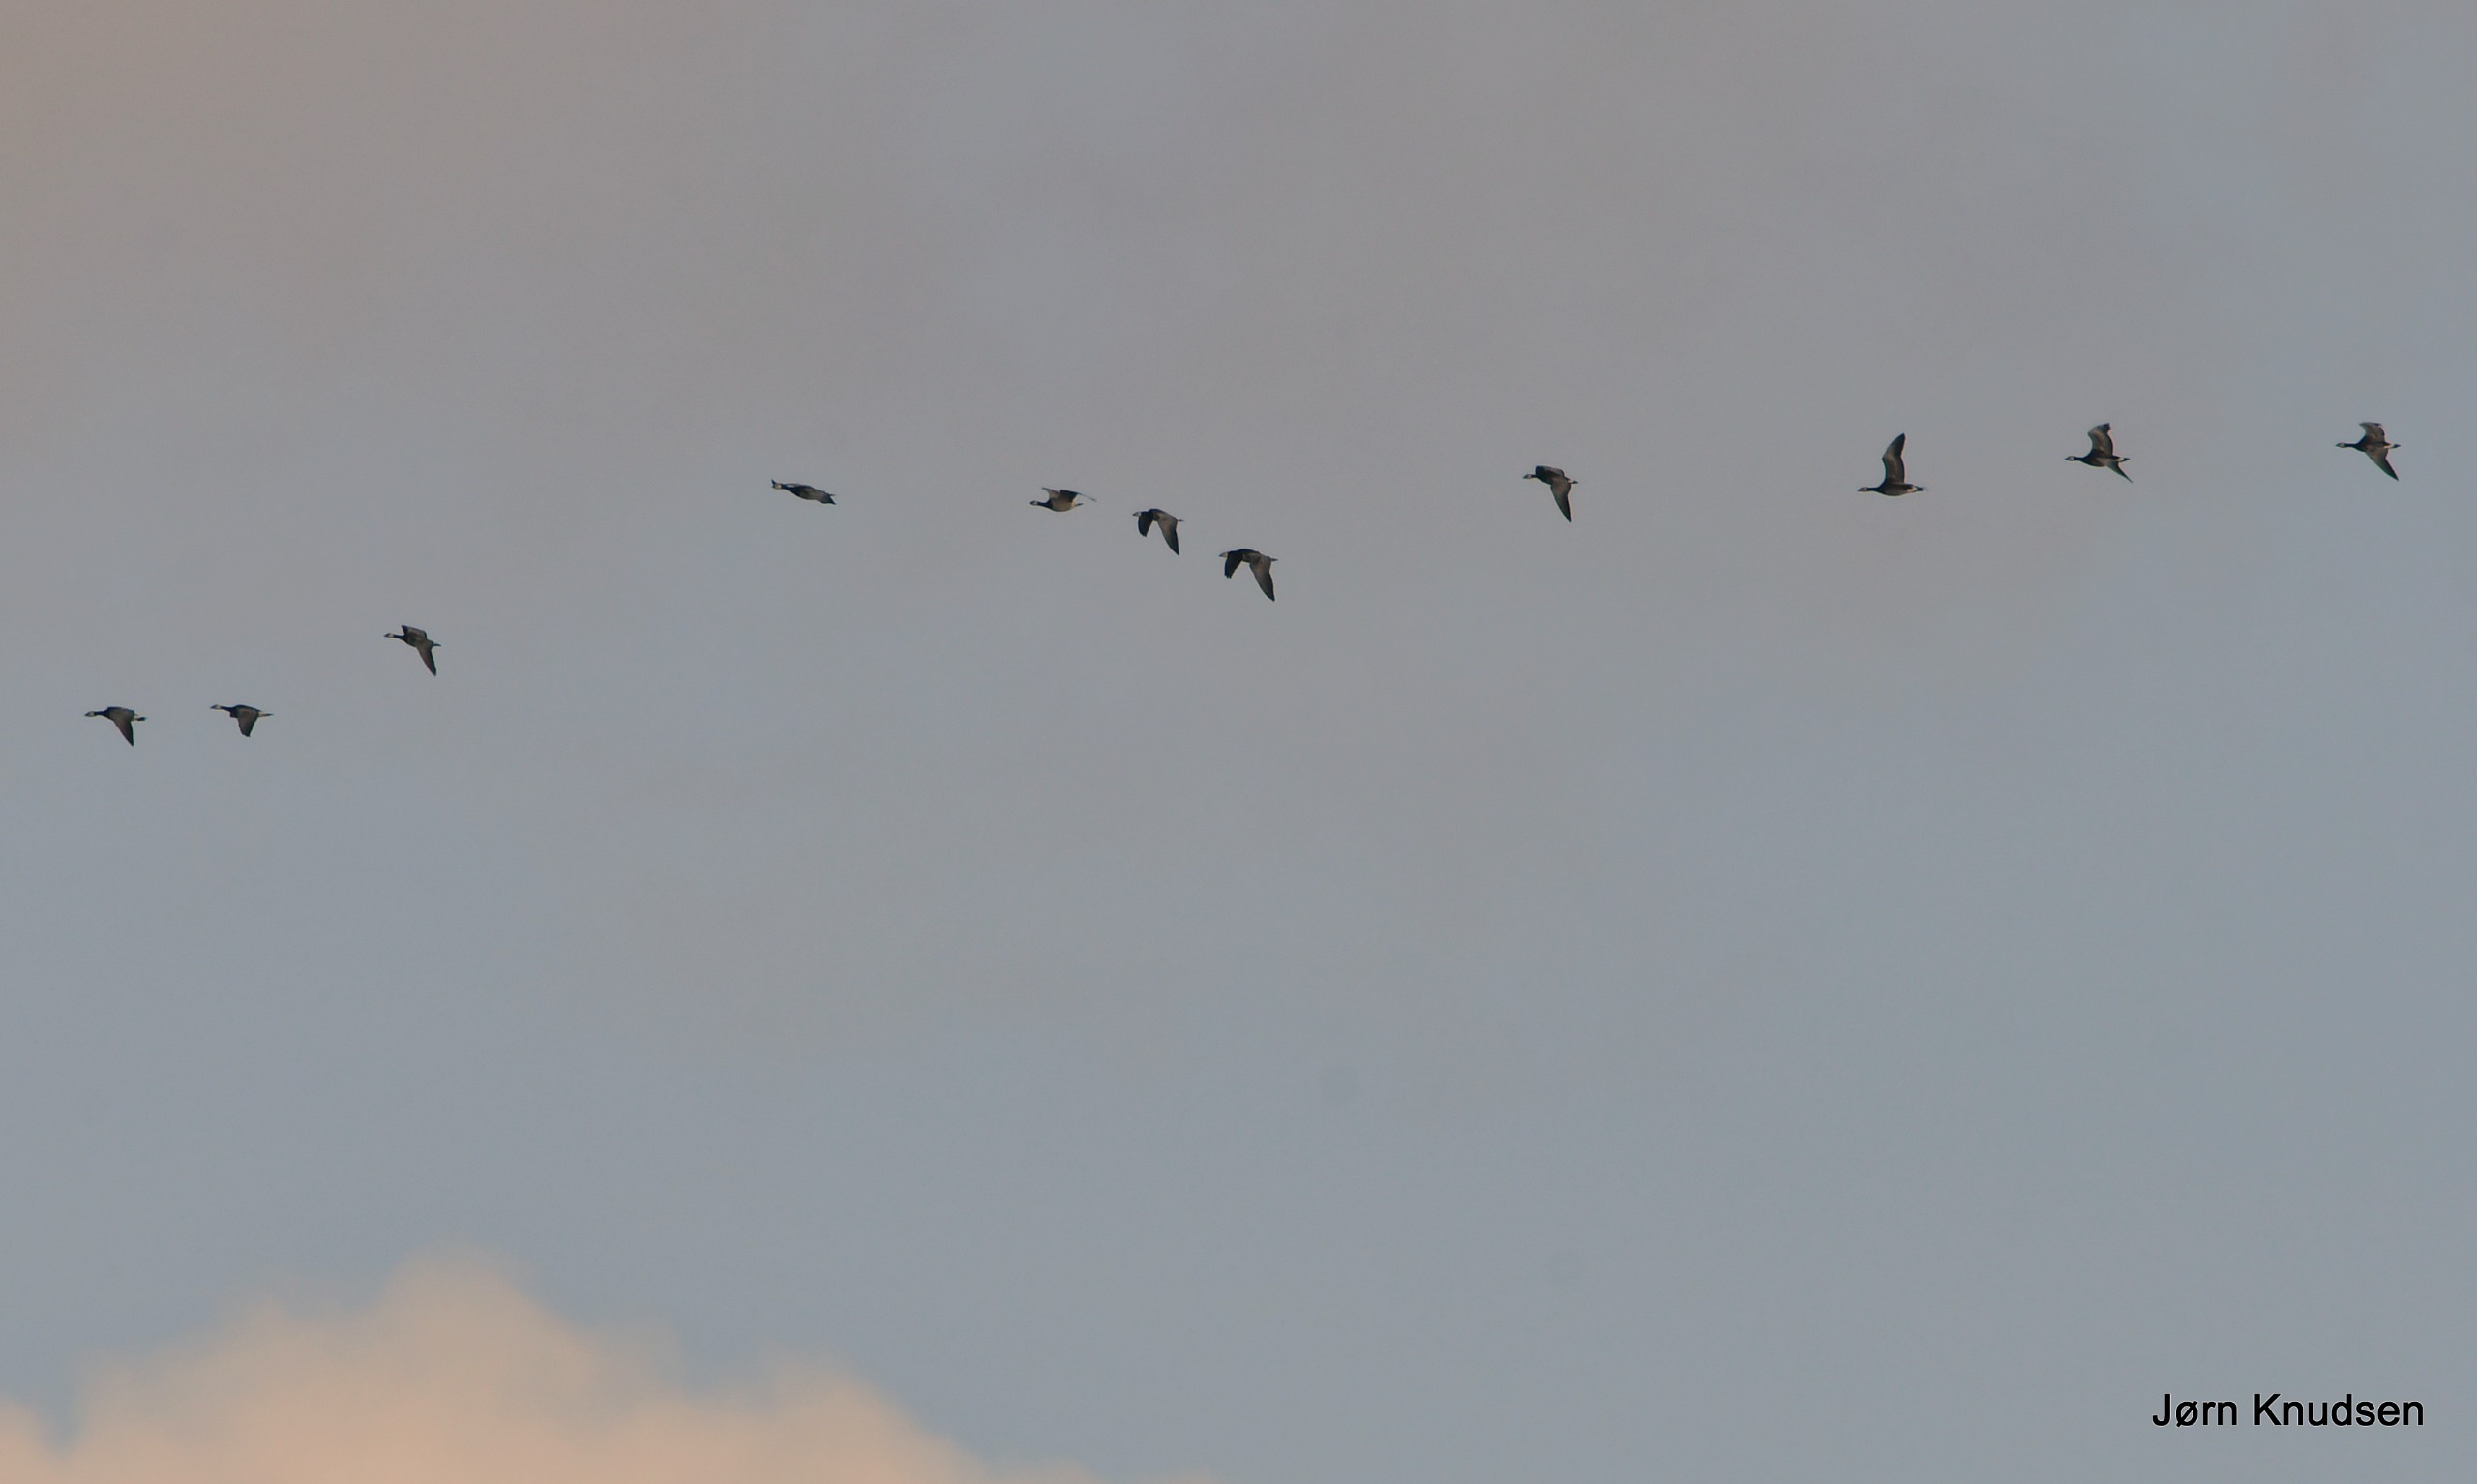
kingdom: Animalia
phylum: Chordata
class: Aves
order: Anseriformes
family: Anatidae
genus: Branta
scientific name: Branta leucopsis
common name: Bramgås
